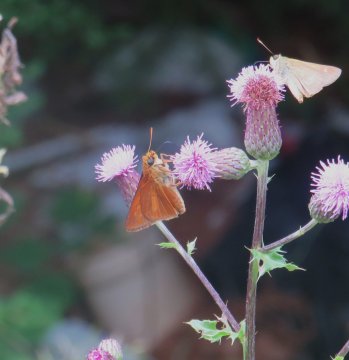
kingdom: Animalia
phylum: Arthropoda
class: Insecta
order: Lepidoptera
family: Hesperiidae
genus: Euphyes
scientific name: Euphyes dion
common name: Dion Skipper
